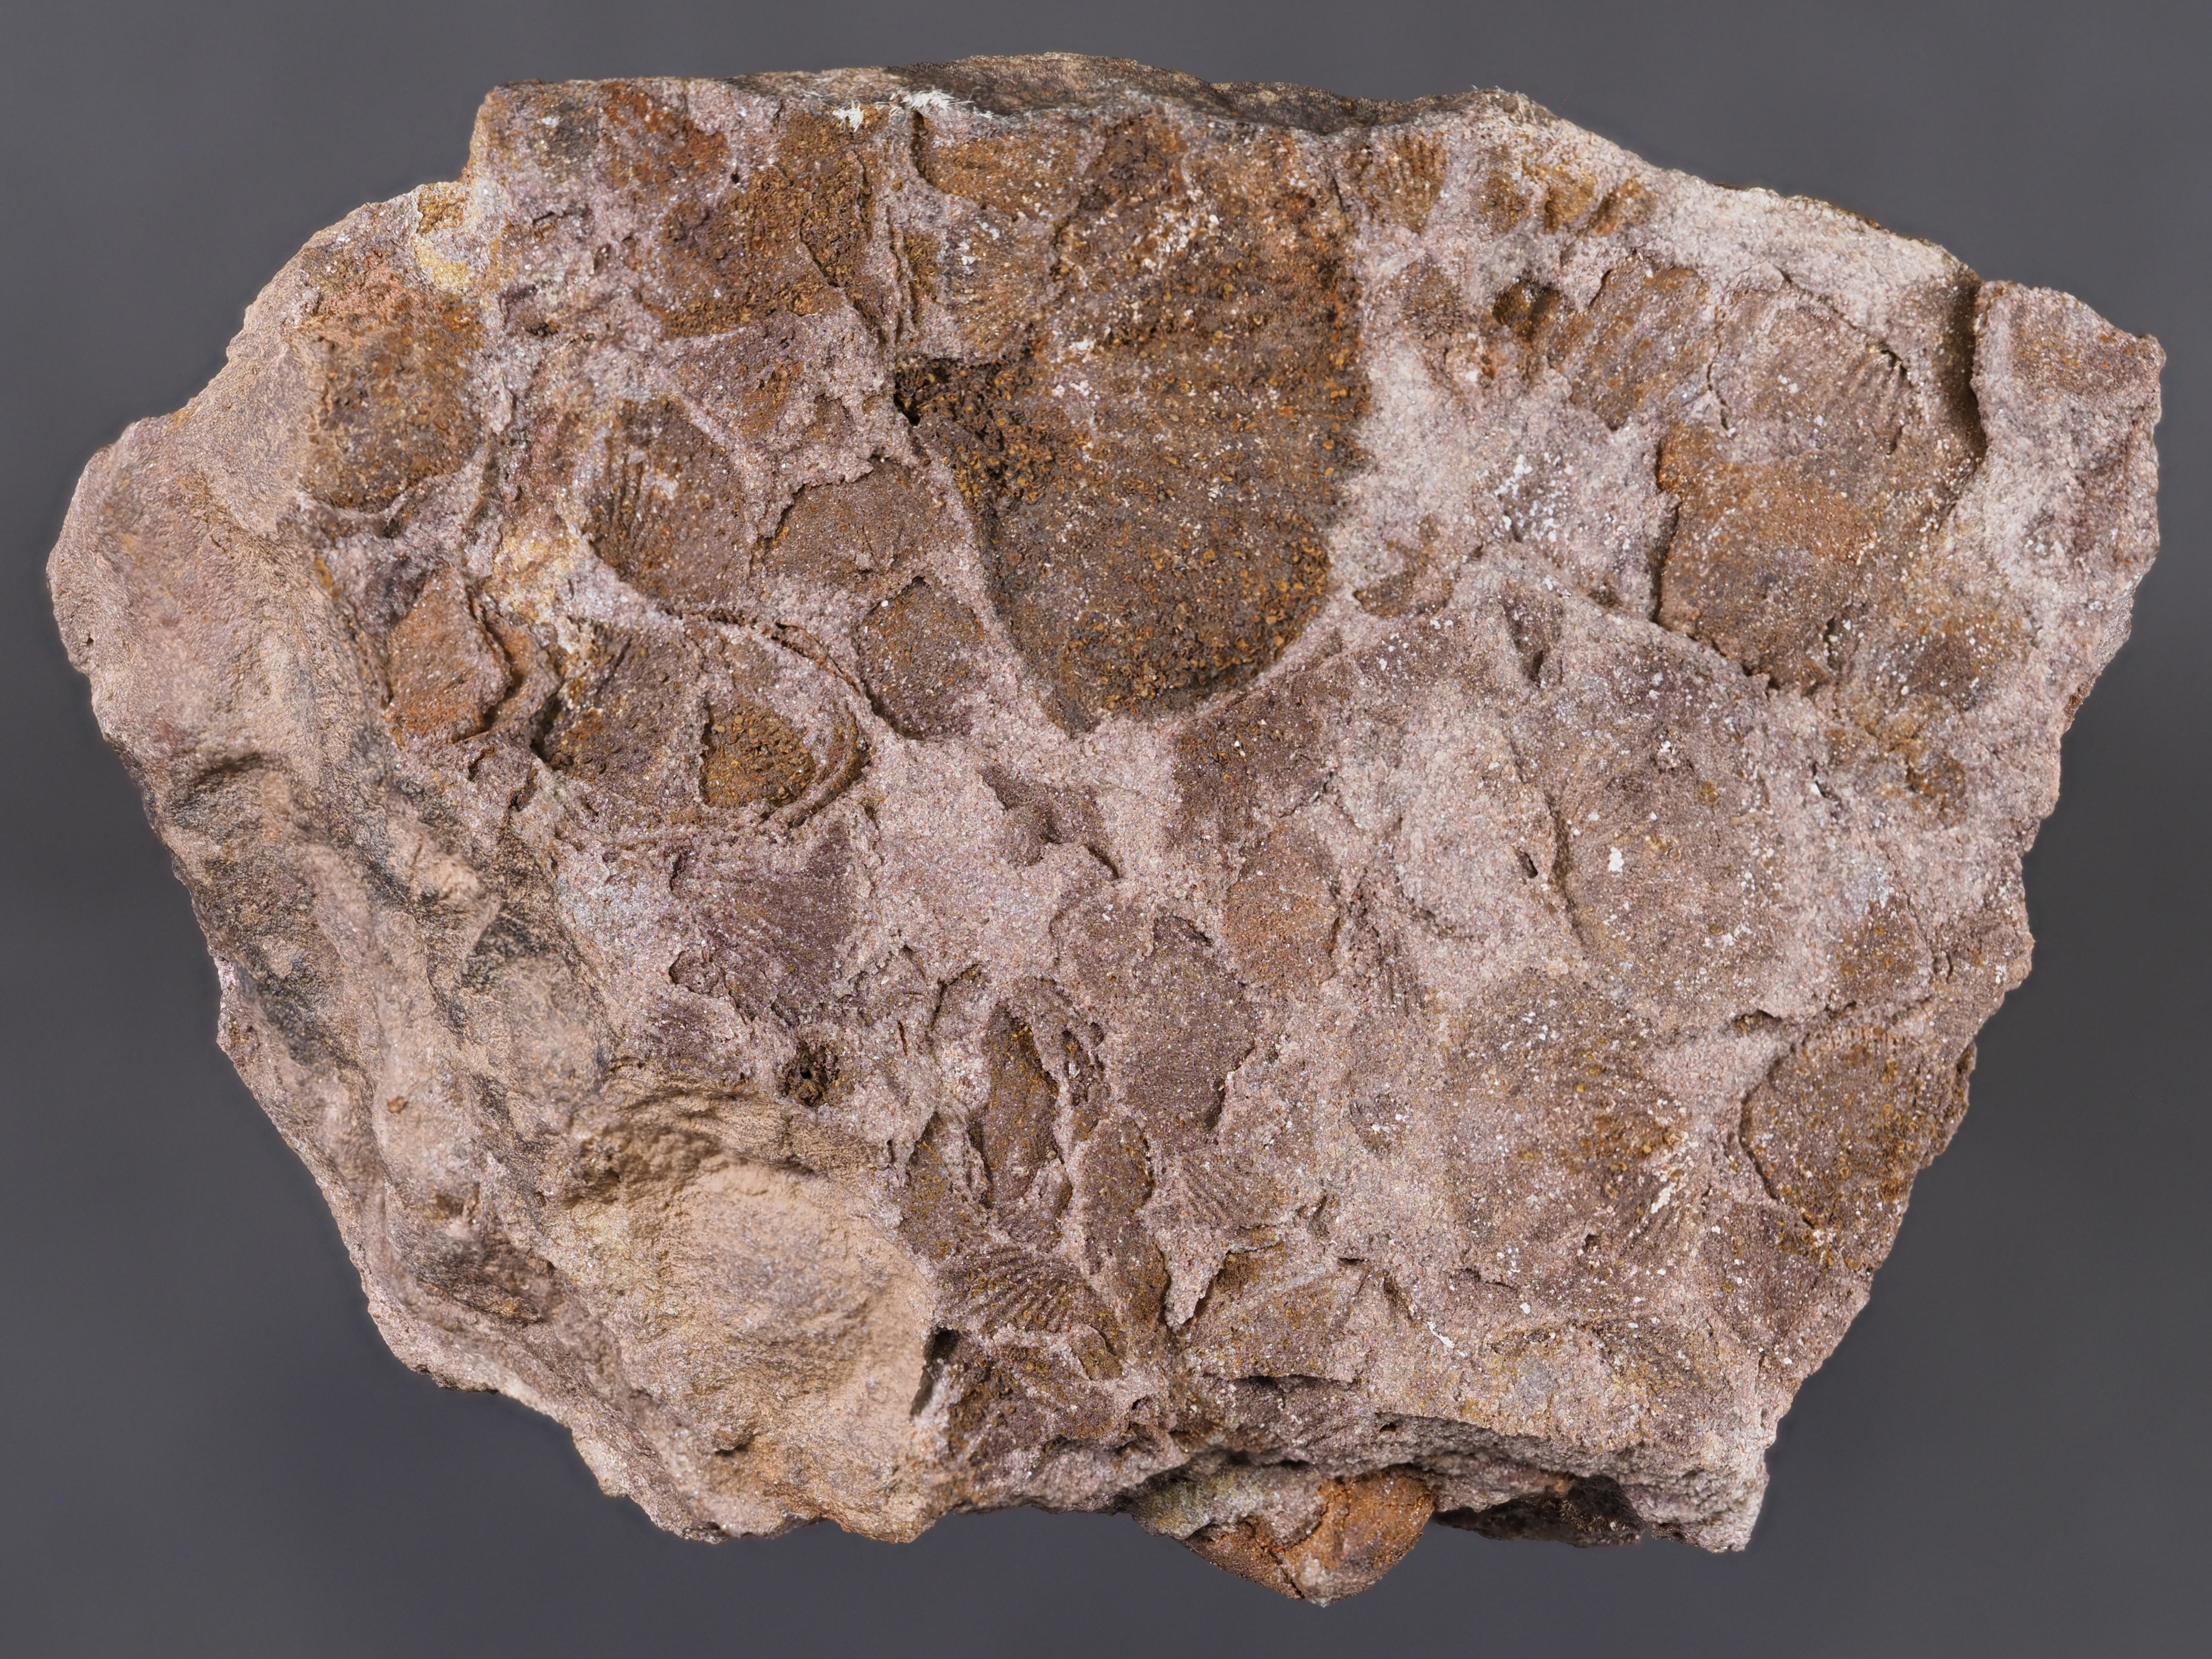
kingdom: Animalia
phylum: Brachiopoda
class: Rhynchonellata
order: Terebratulida
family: Tropidoleptidae
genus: Tropidoleptus
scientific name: Tropidoleptus
